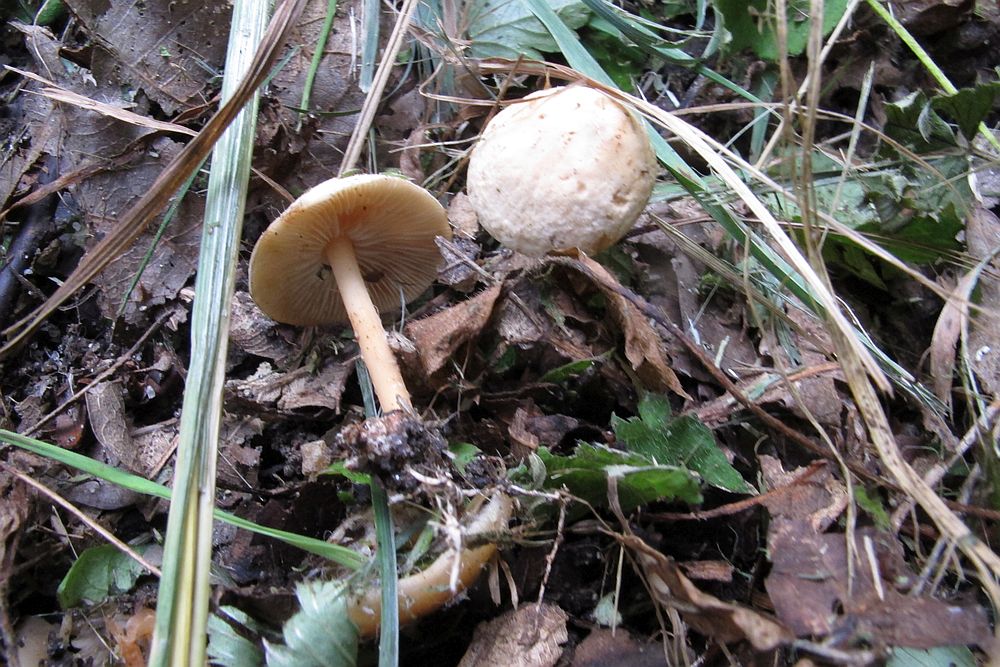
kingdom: Fungi
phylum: Basidiomycota
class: Agaricomycetes
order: Agaricales
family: Omphalotaceae
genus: Gymnopus
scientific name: Gymnopus aquosus
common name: bleg fladhat
